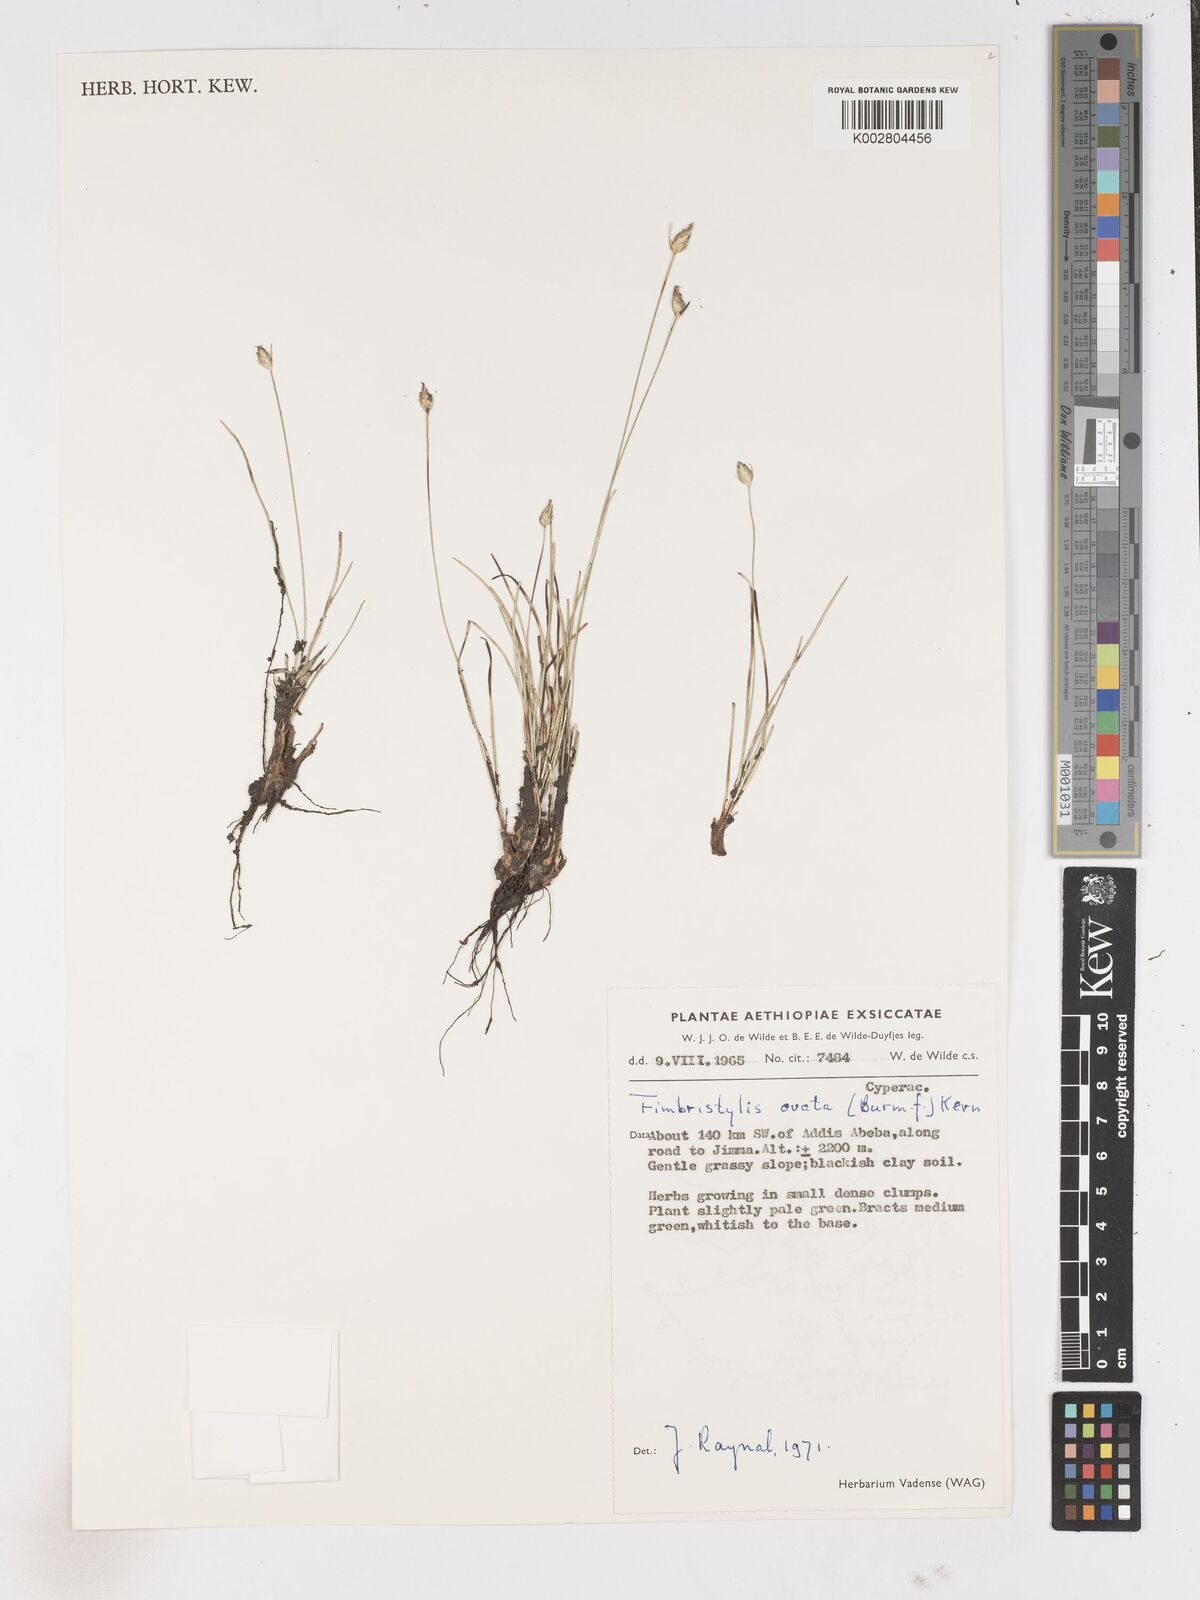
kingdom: Plantae
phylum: Tracheophyta
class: Liliopsida
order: Poales
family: Cyperaceae
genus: Abildgaardia
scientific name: Abildgaardia ovata
